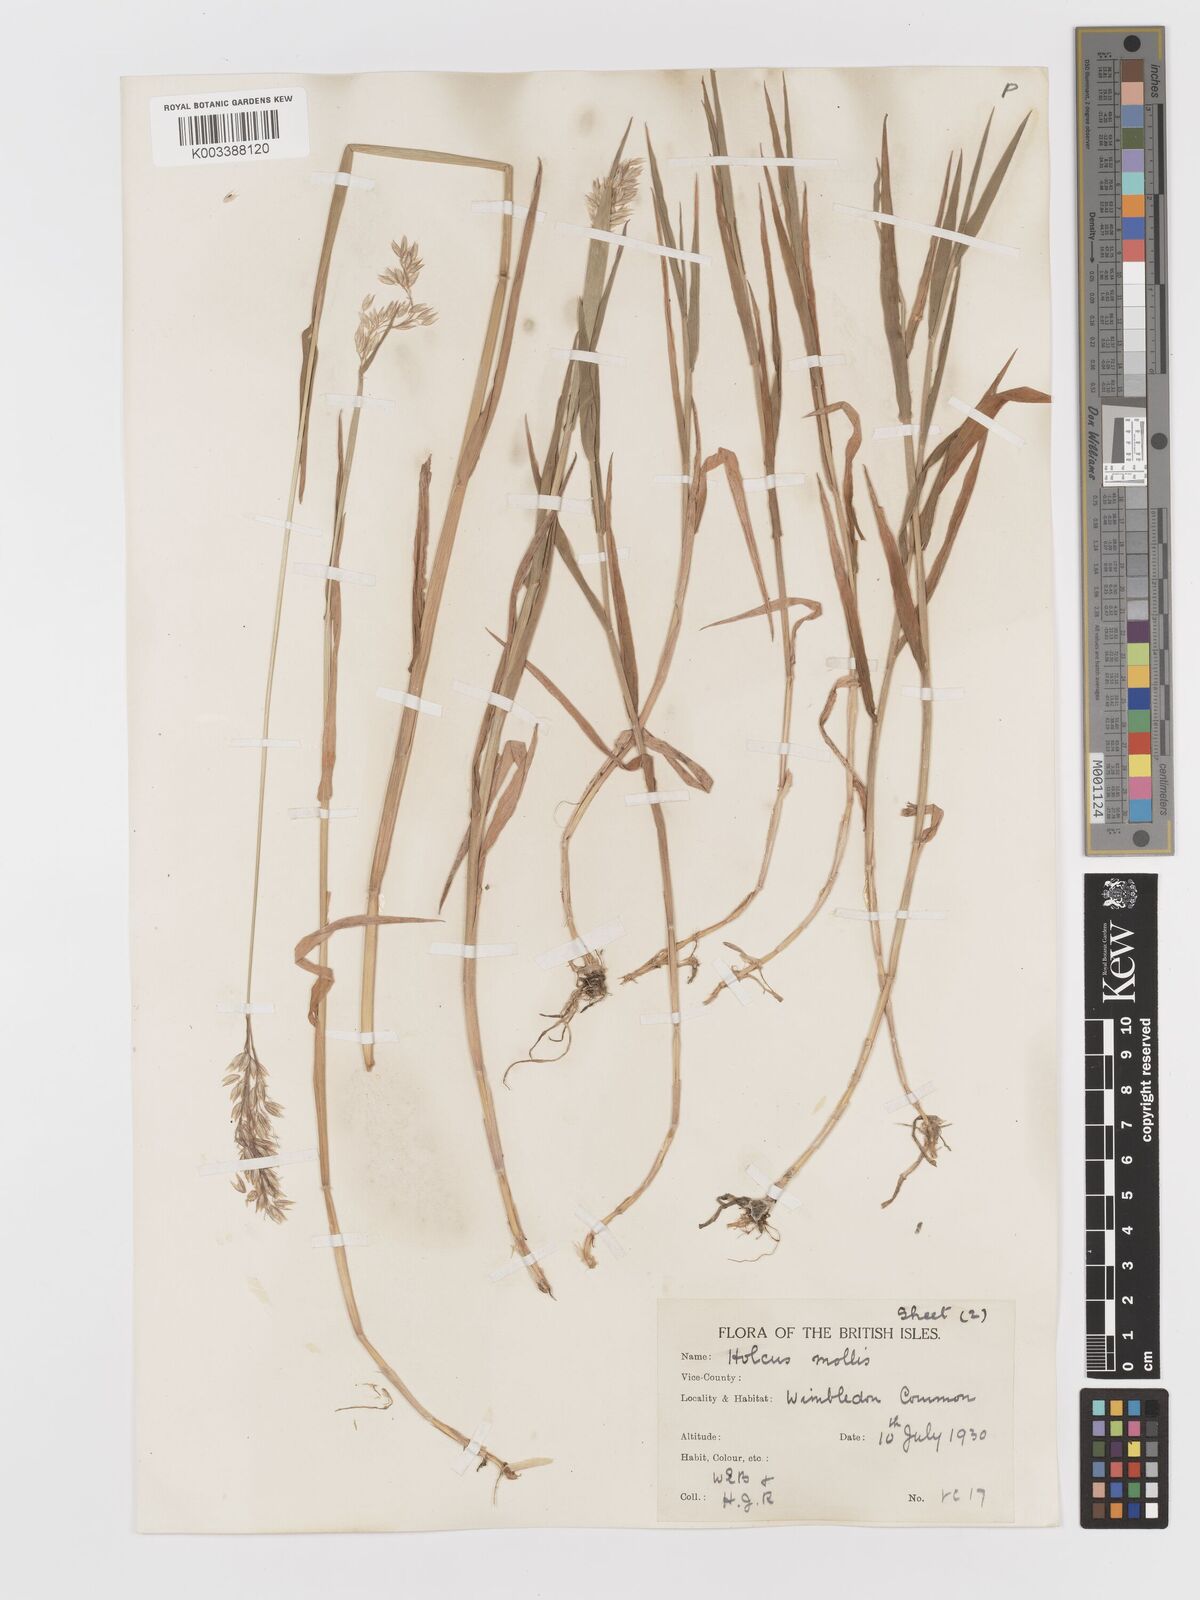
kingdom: Plantae
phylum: Tracheophyta
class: Liliopsida
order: Poales
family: Poaceae
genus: Holcus
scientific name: Holcus mollis
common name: Creeping velvetgrass
